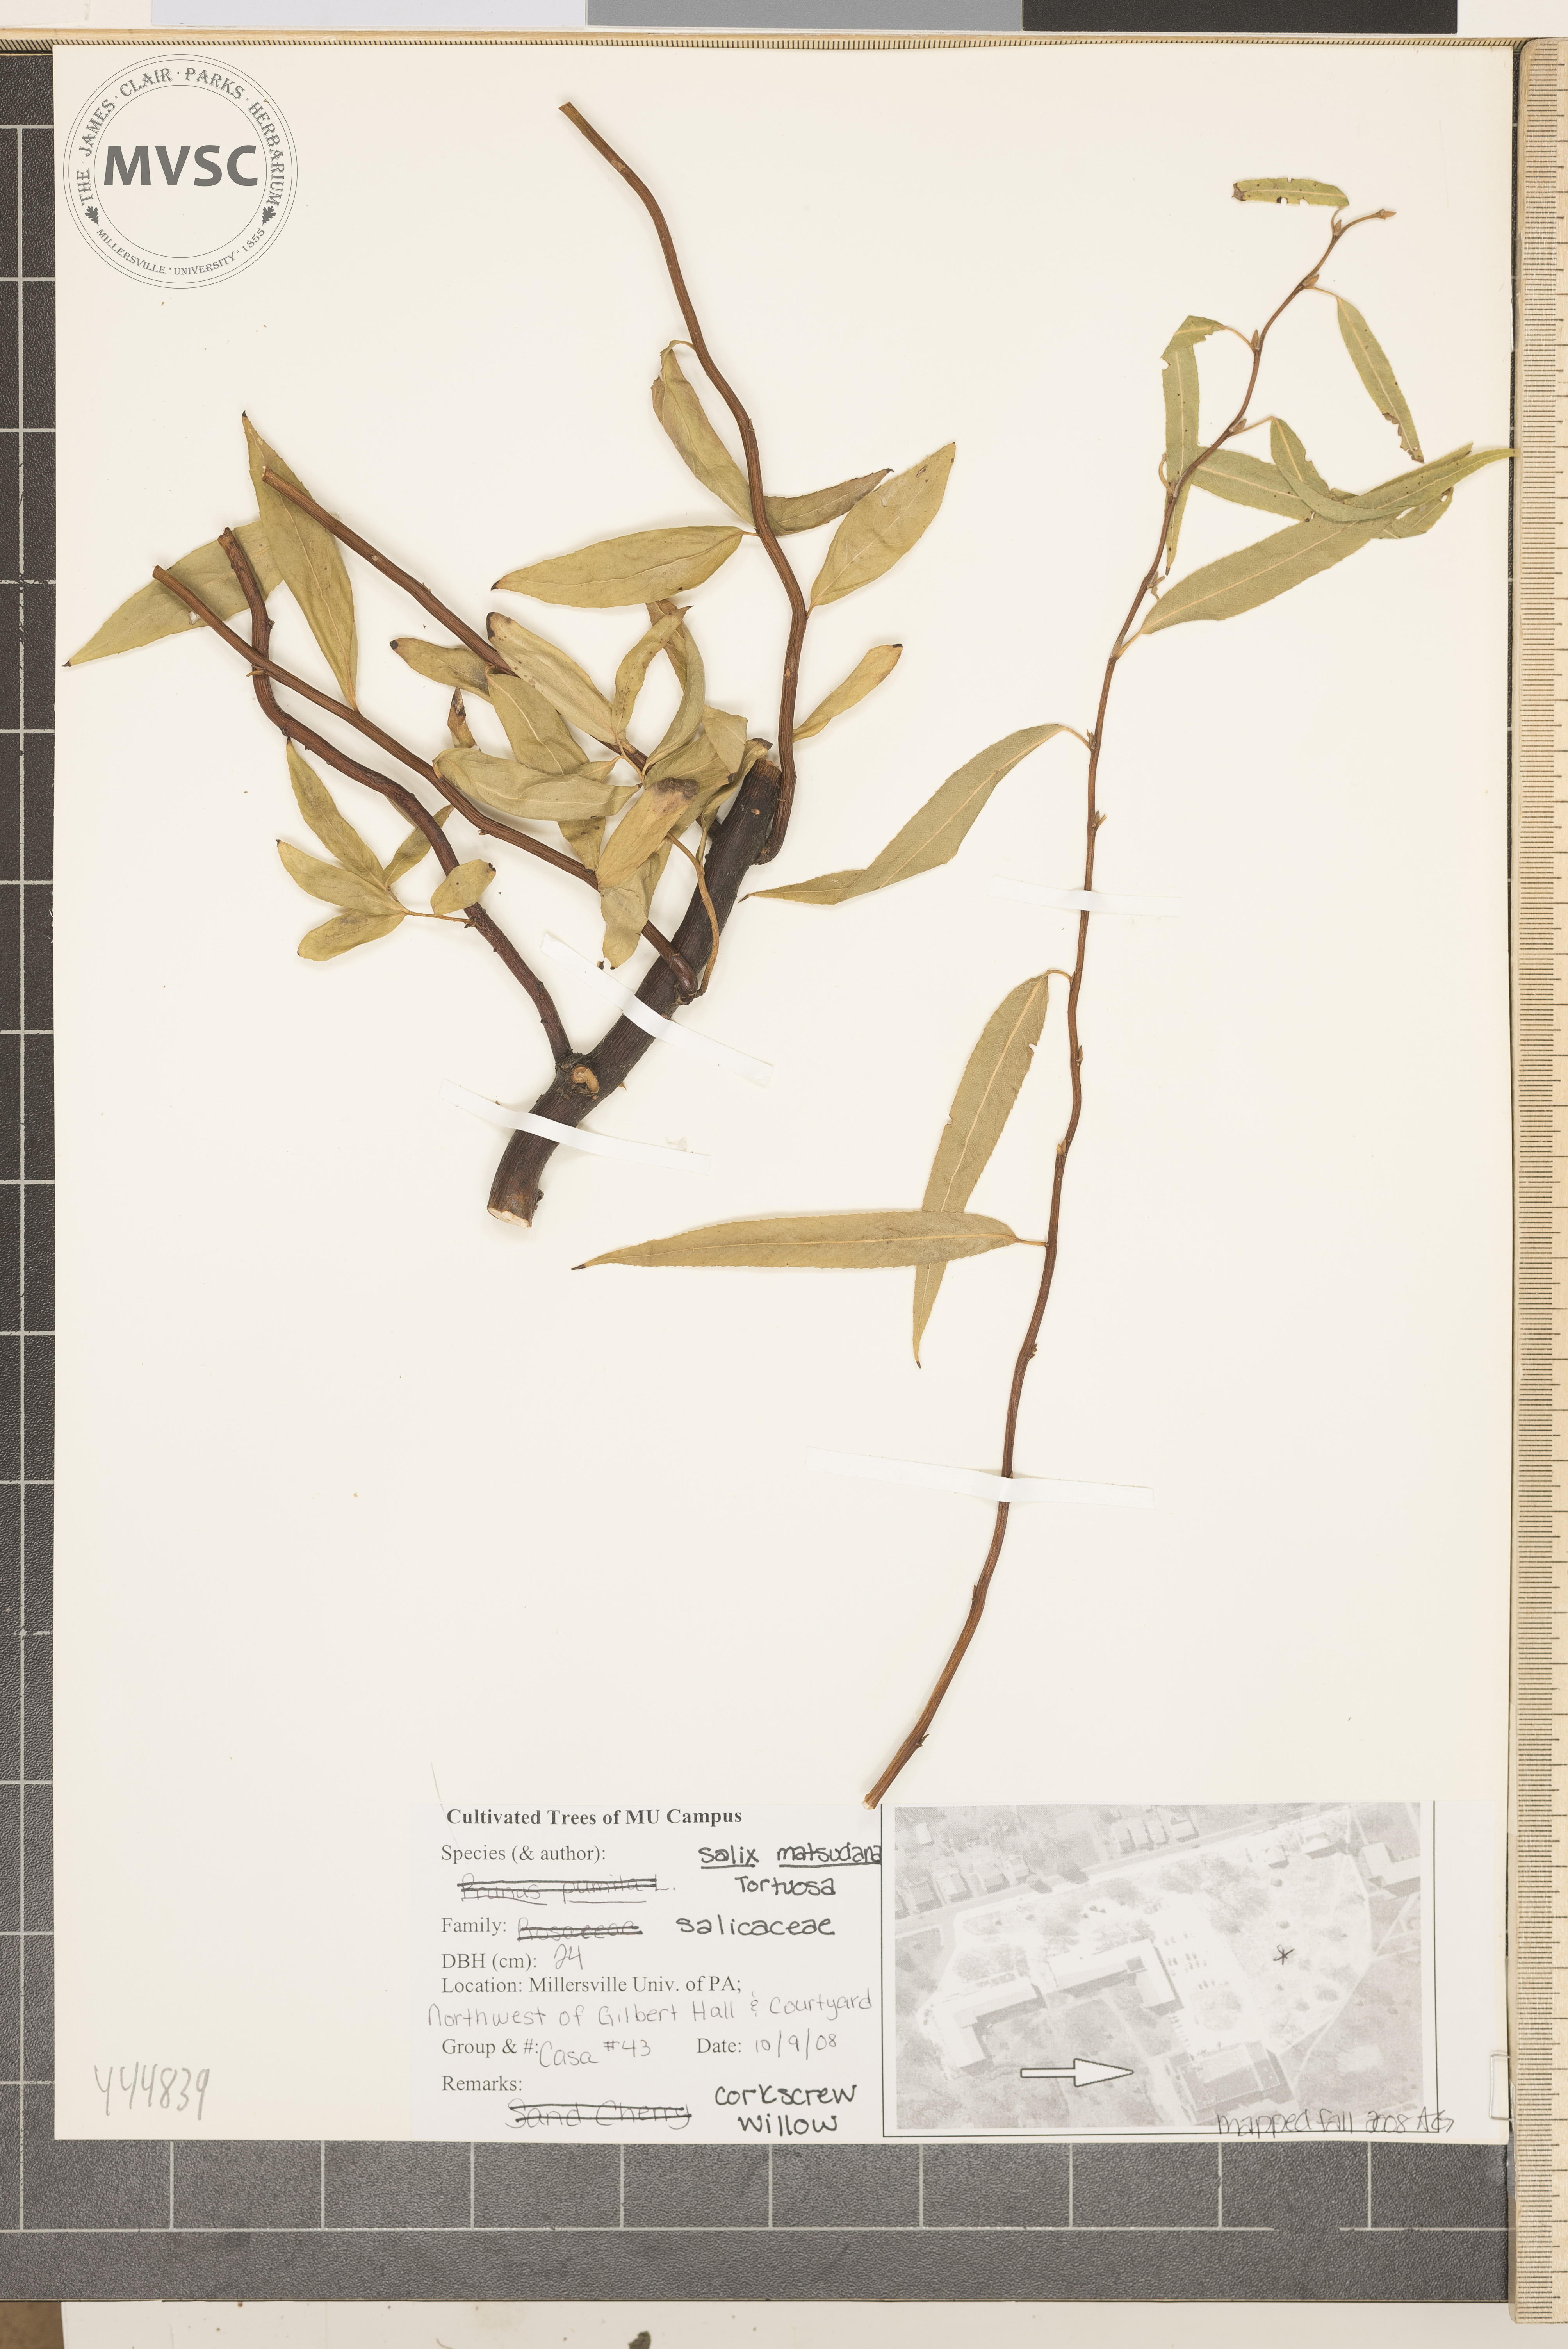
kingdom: Plantae
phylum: Tracheophyta
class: Magnoliopsida
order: Malpighiales
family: Salicaceae
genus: Salix
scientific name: Salix matsudana
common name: Peking willow
